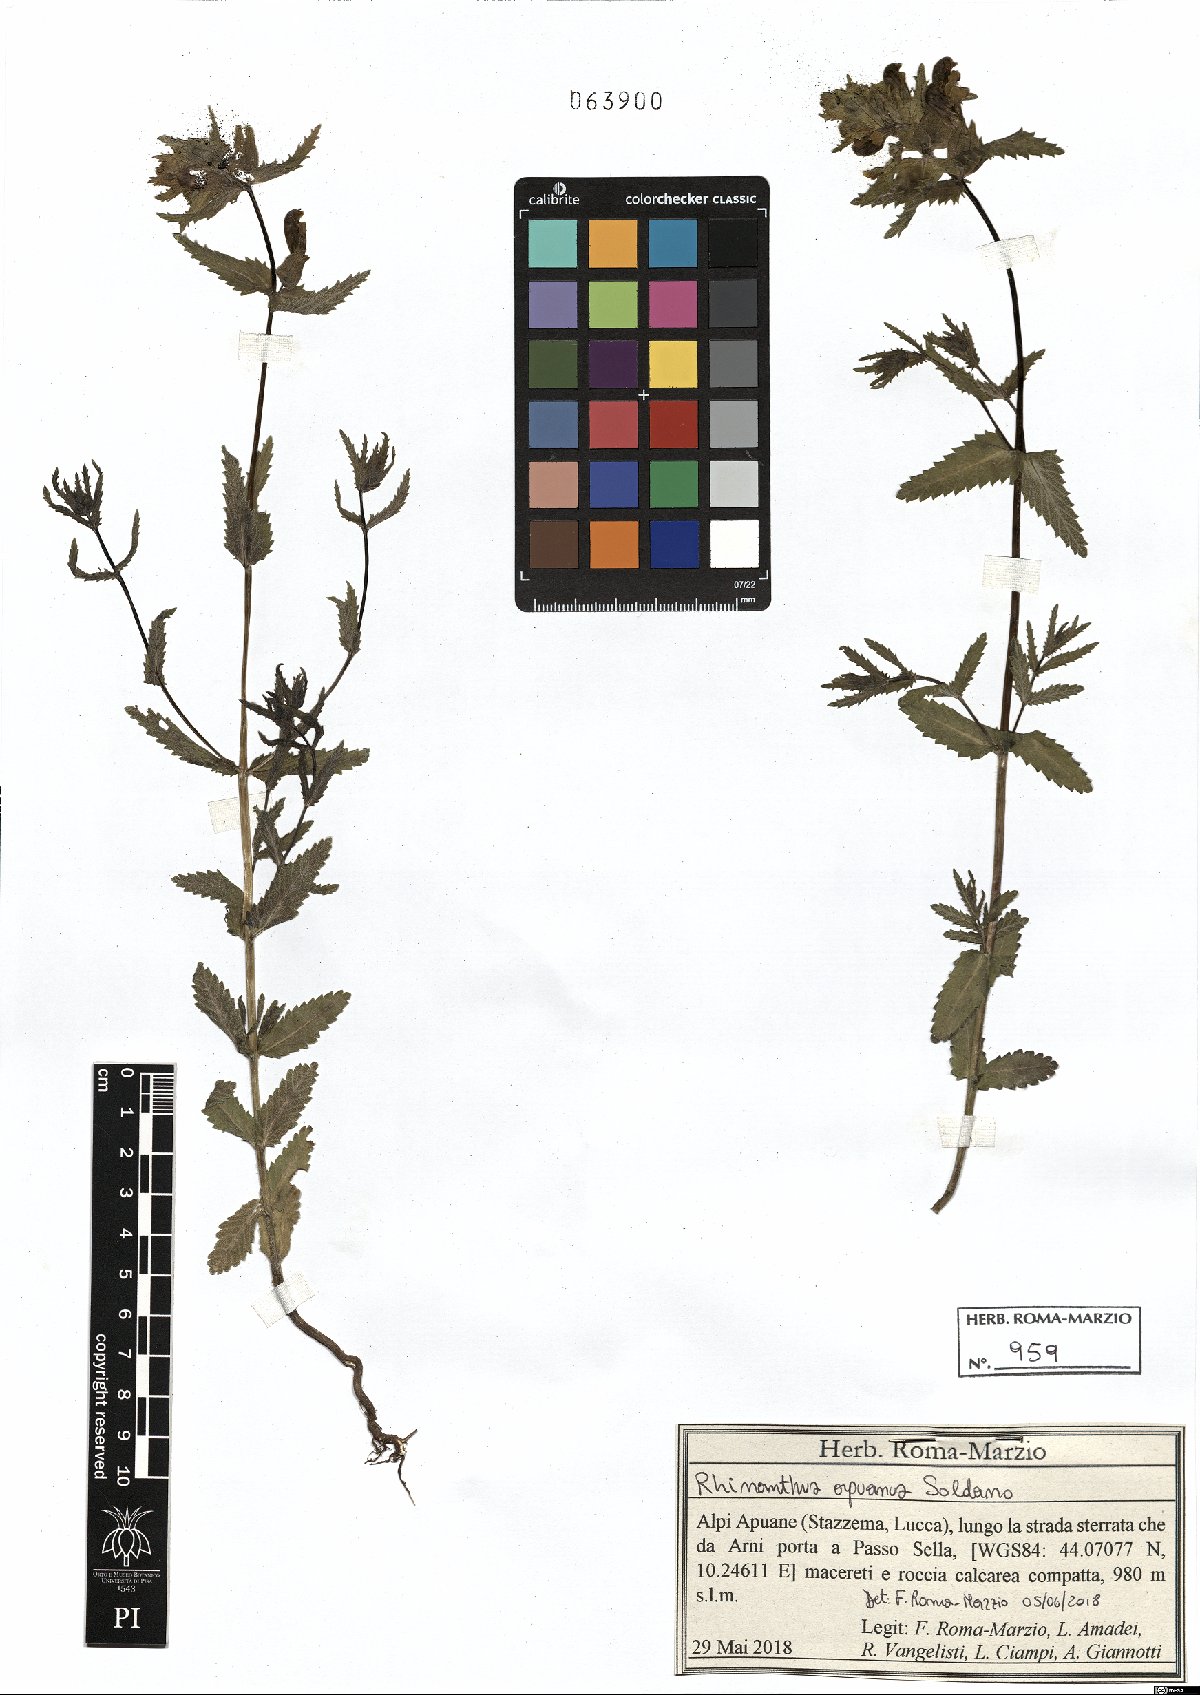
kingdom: Plantae
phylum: Tracheophyta
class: Magnoliopsida
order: Lamiales
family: Orobanchaceae
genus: Rhinanthus
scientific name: Rhinanthus pumilus
